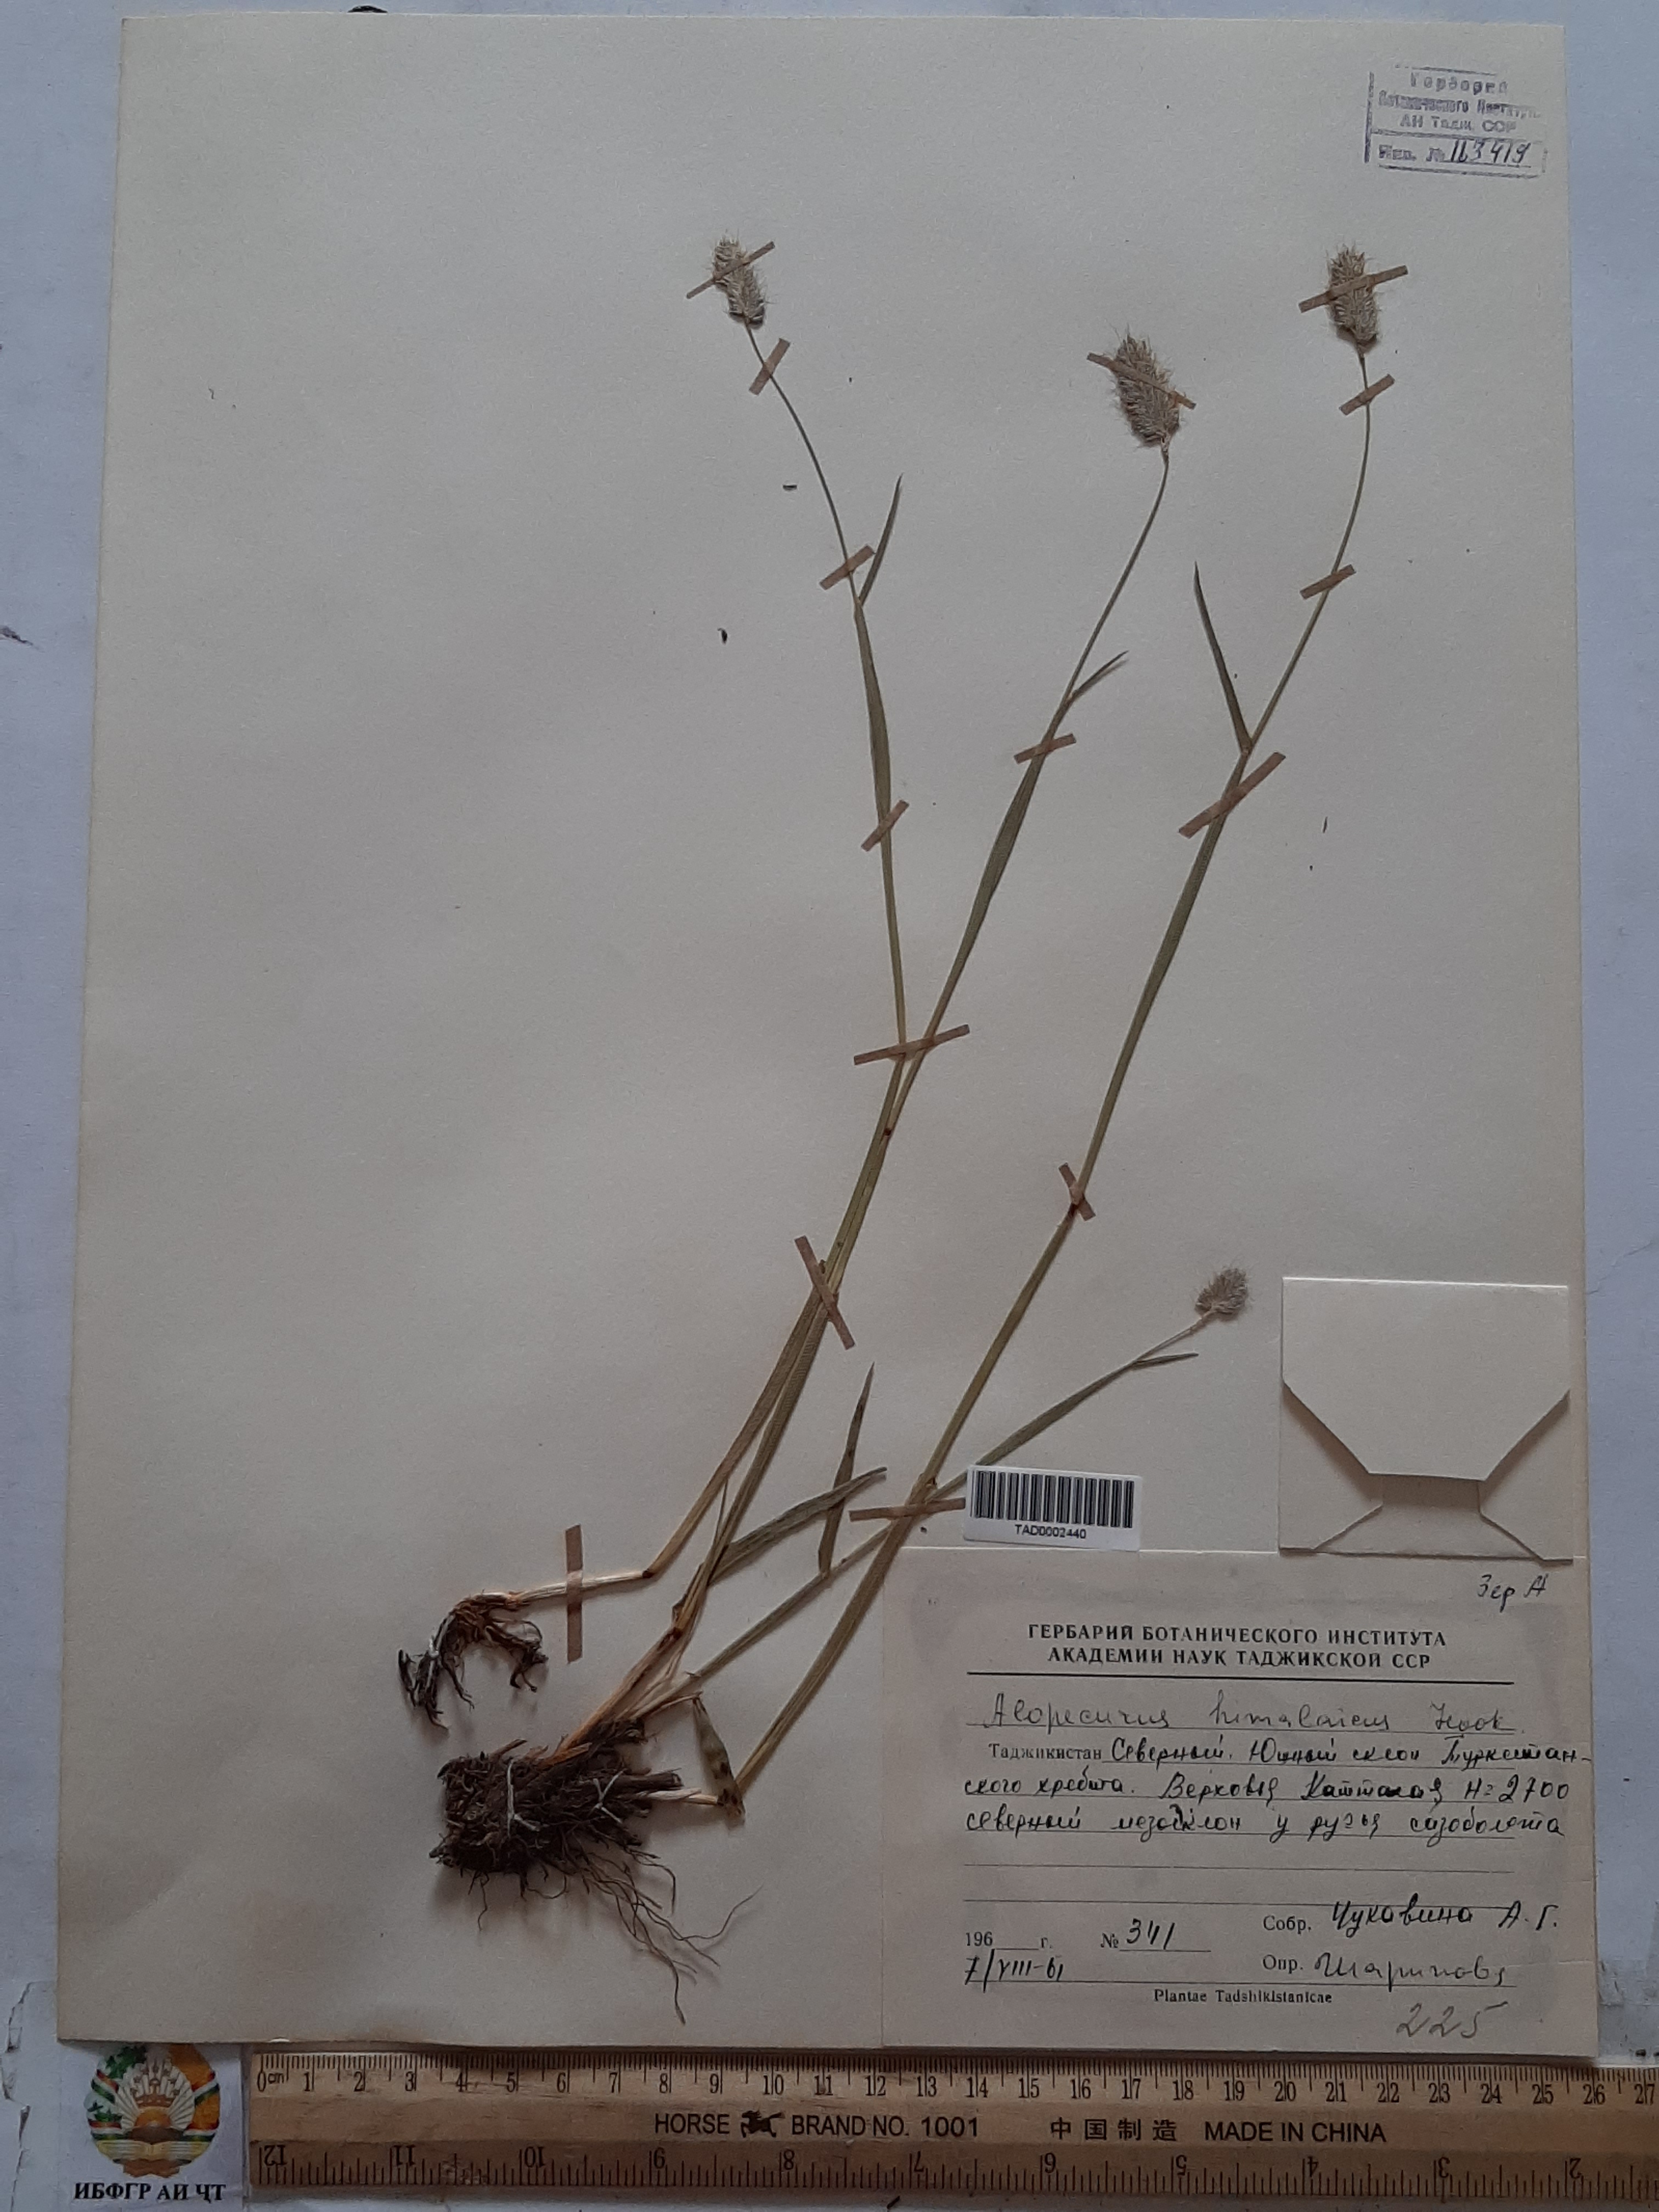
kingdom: Plantae
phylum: Tracheophyta
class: Liliopsida
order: Poales
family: Poaceae
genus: Alopecurus
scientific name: Alopecurus himalaicus
